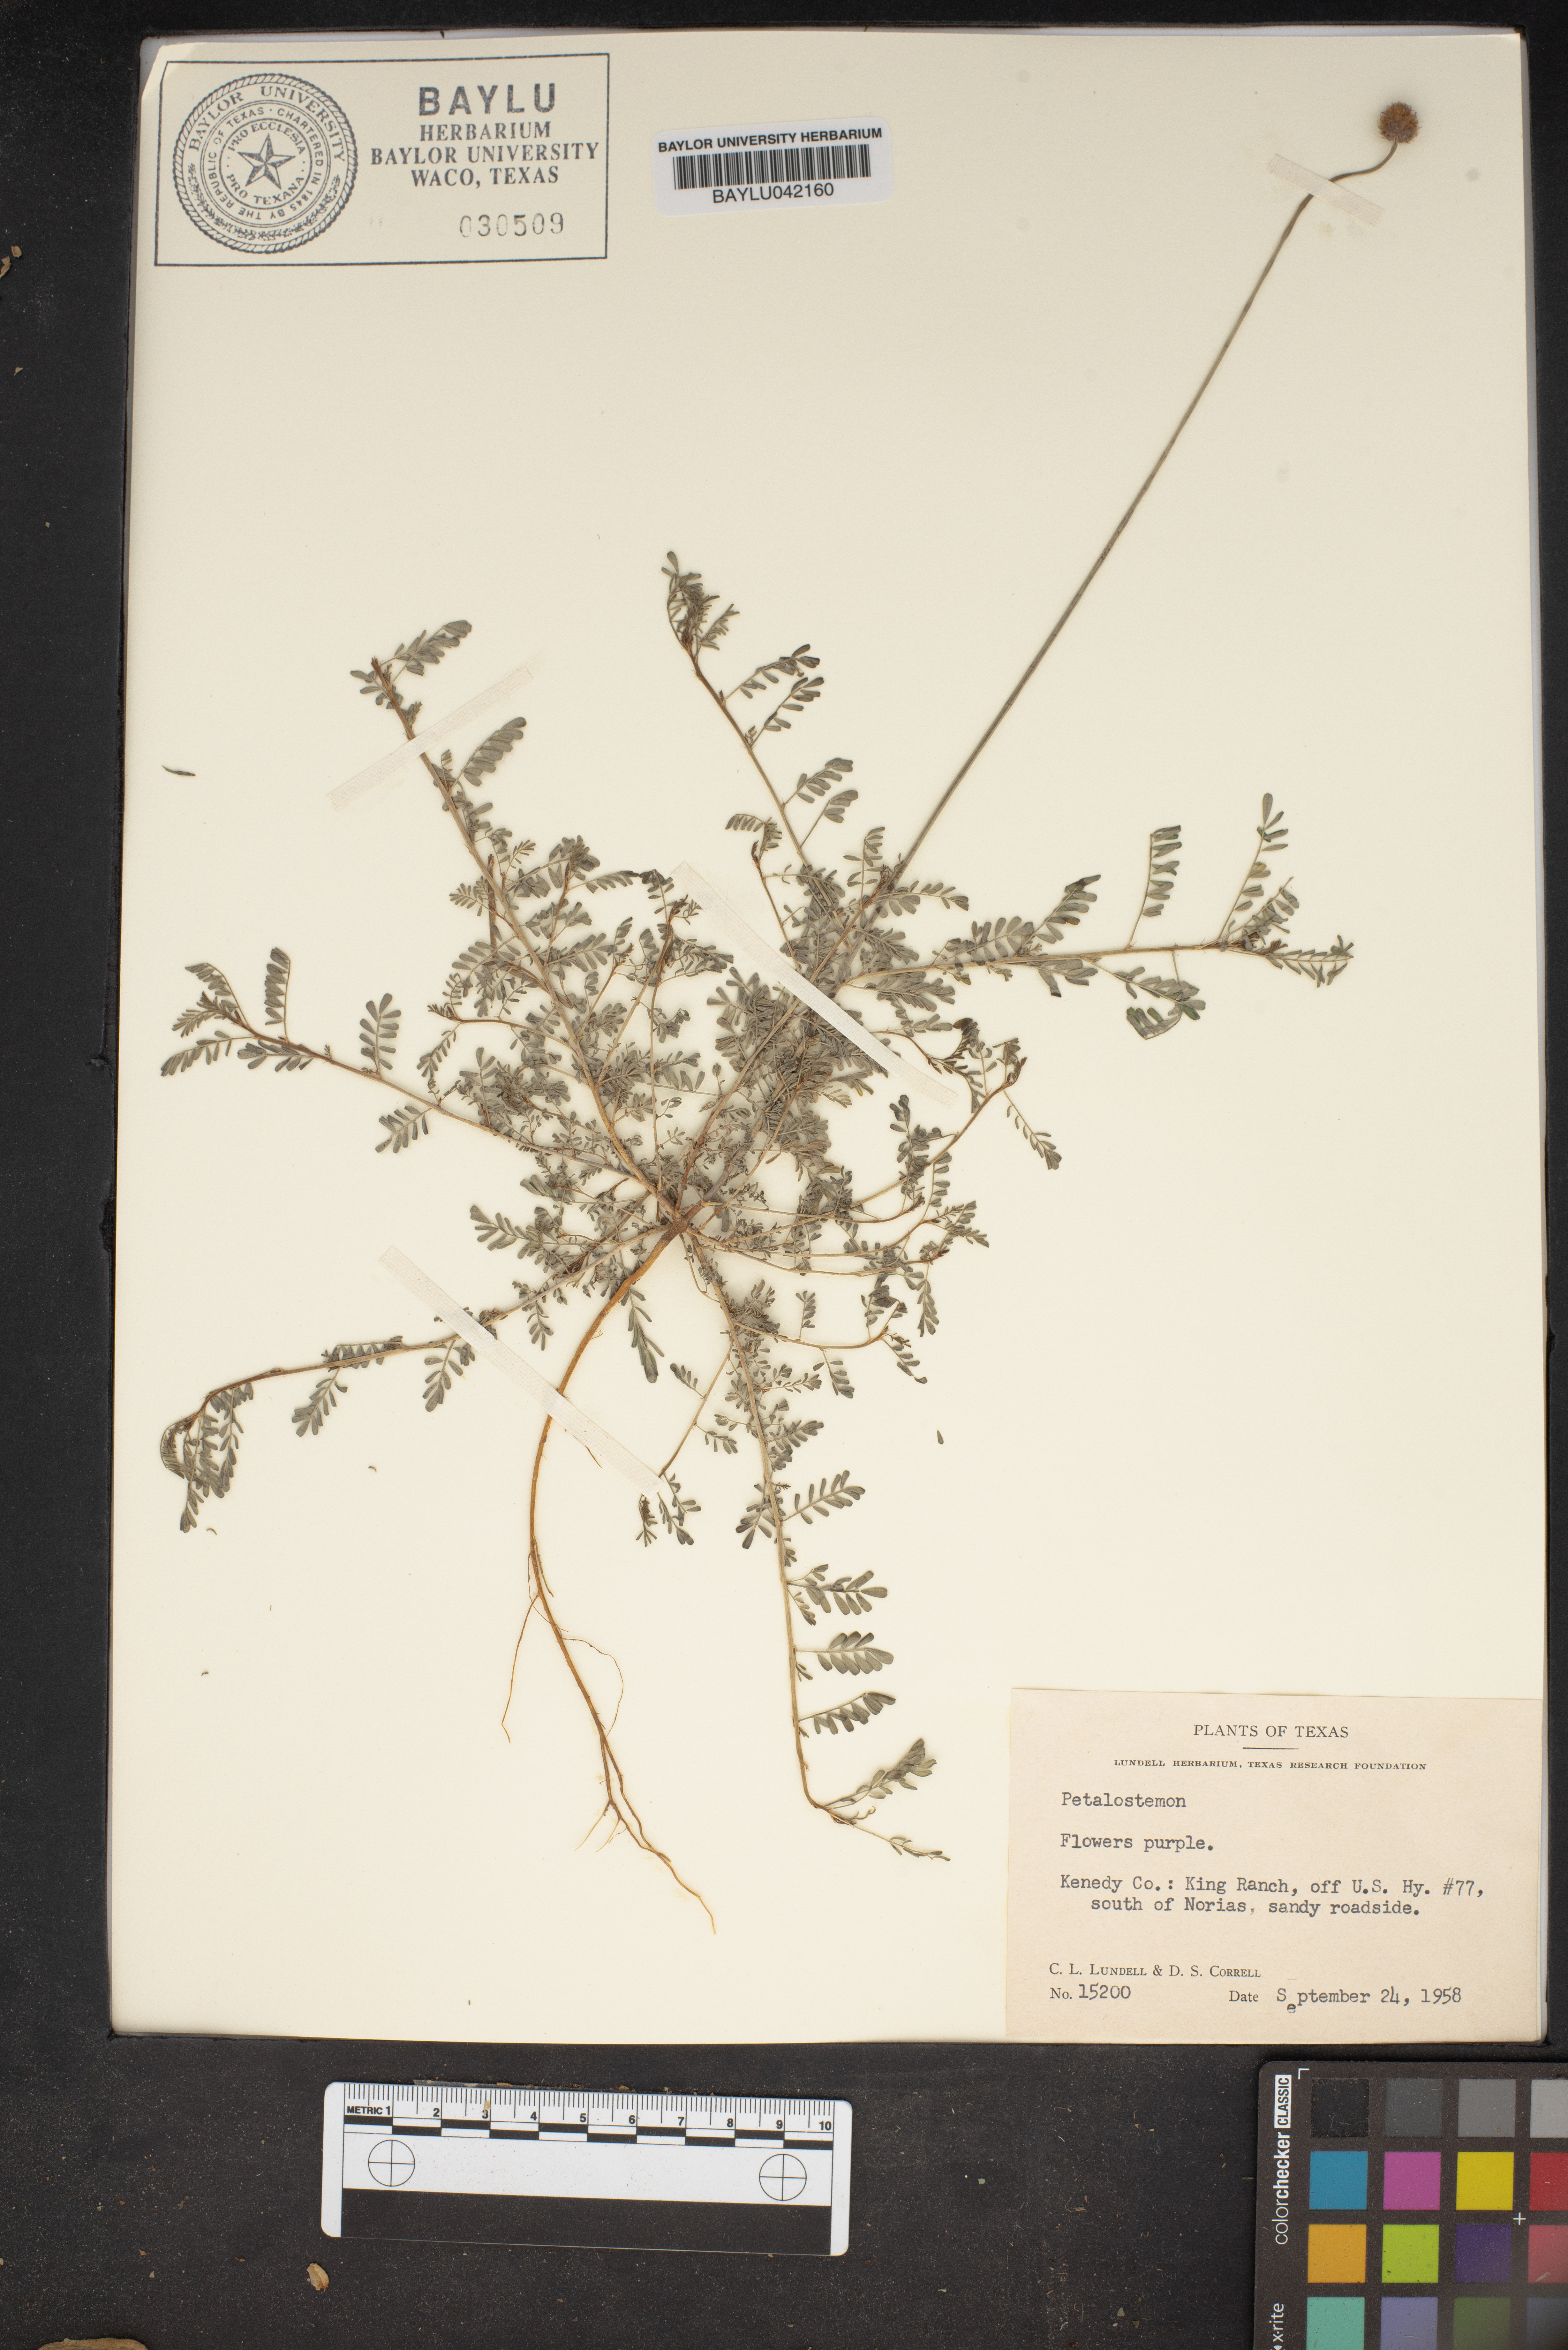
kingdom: Plantae
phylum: Tracheophyta
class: Magnoliopsida
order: Fabales
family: Fabaceae
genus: Dalea
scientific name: Dalea
